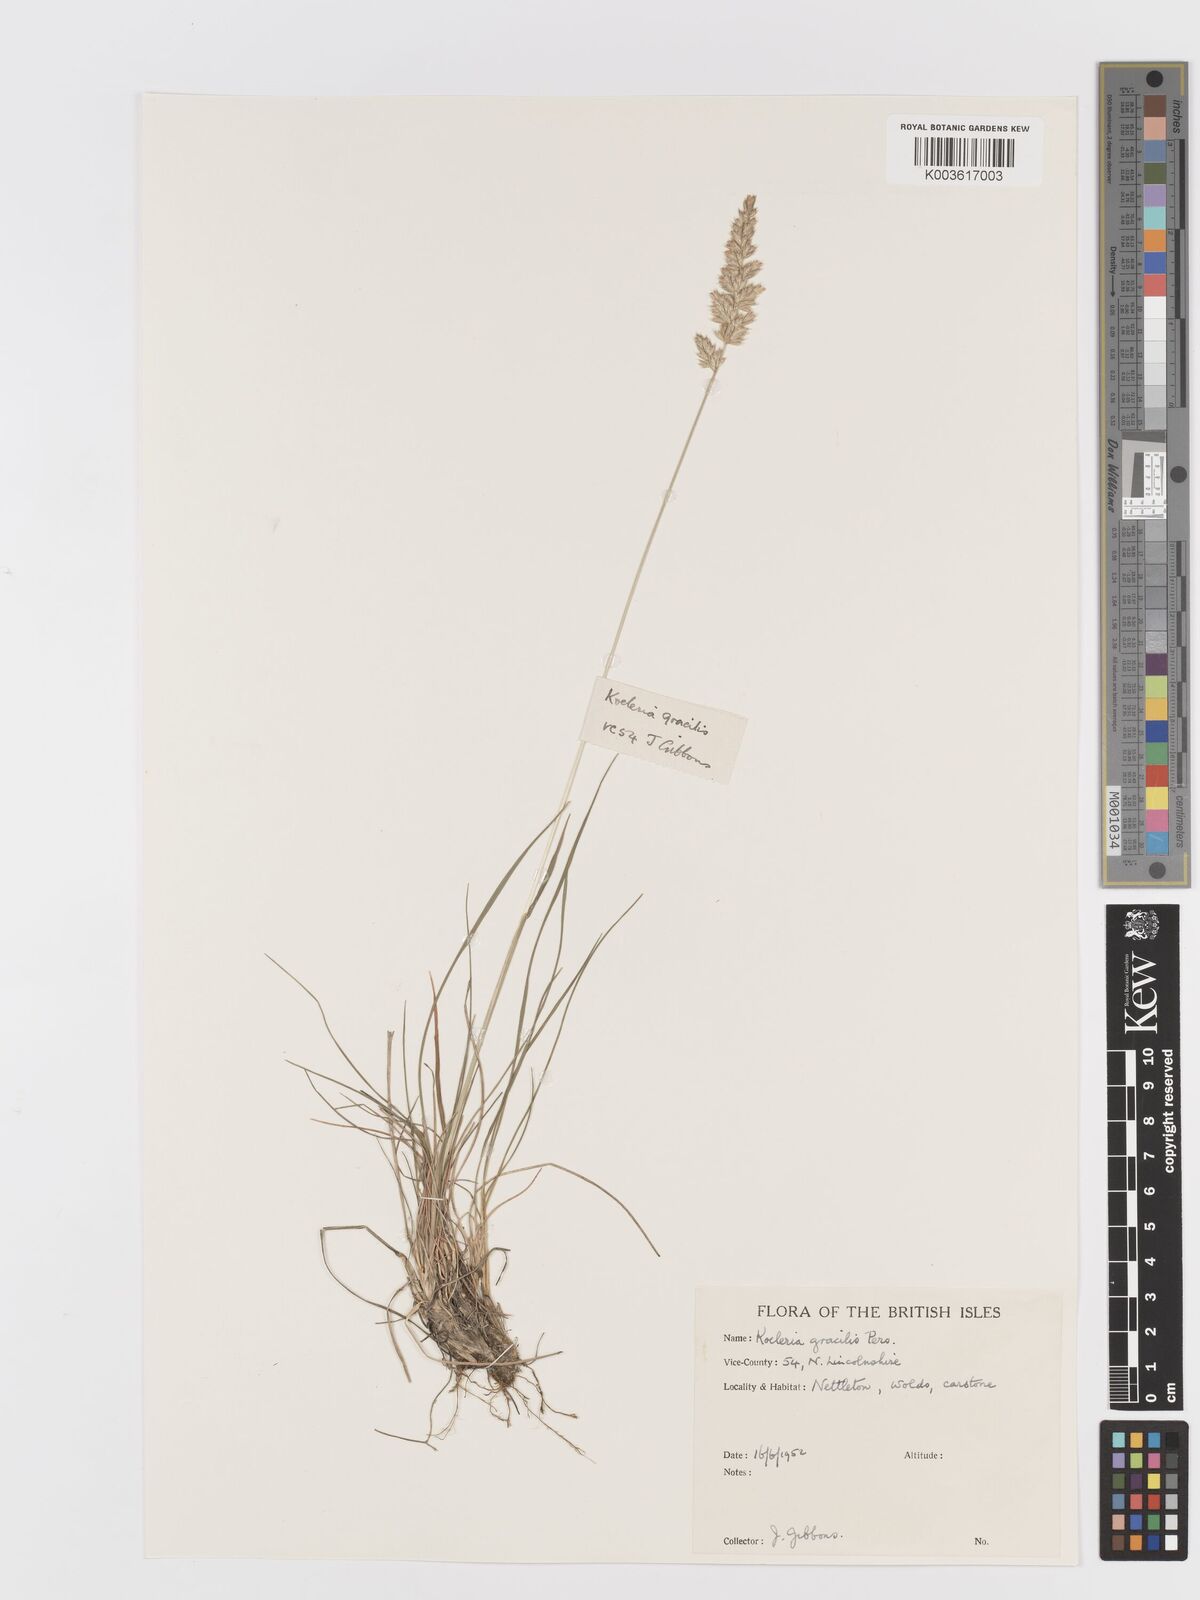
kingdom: Plantae
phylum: Tracheophyta
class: Liliopsida
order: Poales
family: Poaceae
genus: Koeleria
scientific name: Koeleria macrantha
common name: Crested hair-grass
